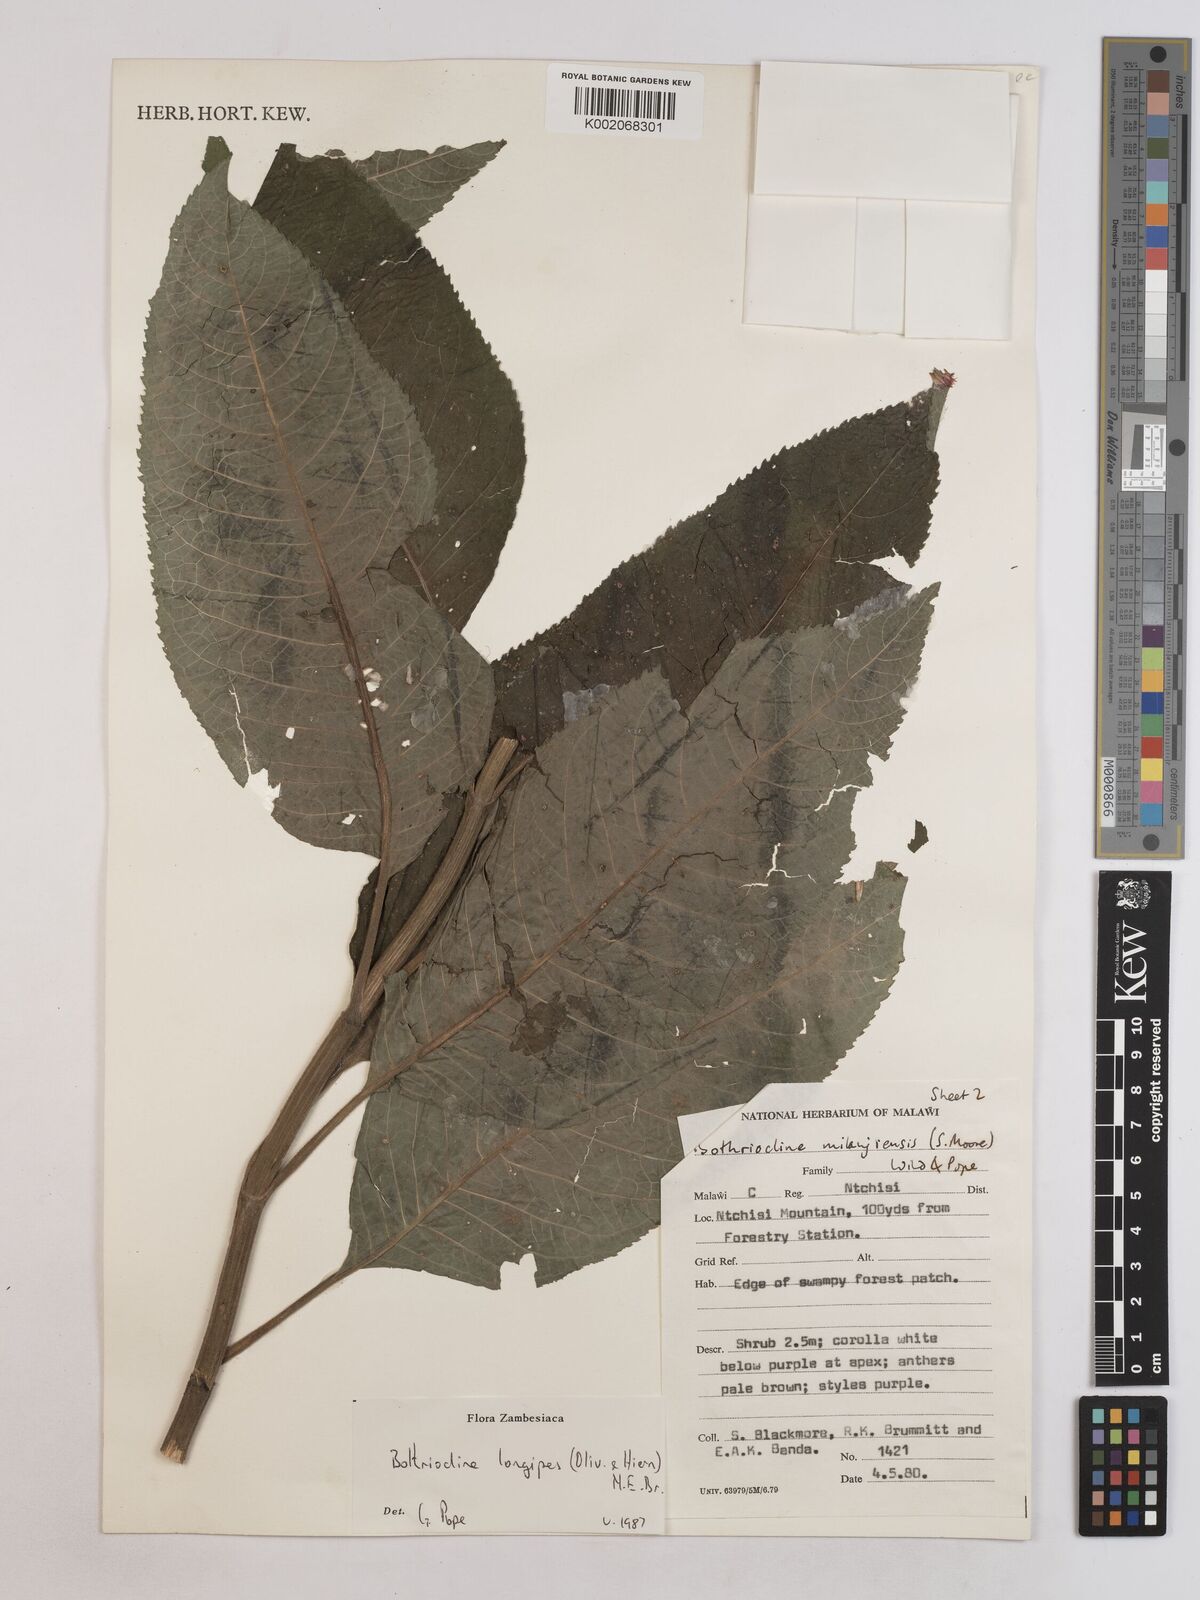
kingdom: Plantae
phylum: Tracheophyta
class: Magnoliopsida
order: Asterales
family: Asteraceae
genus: Bothriocline
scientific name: Bothriocline longipes
